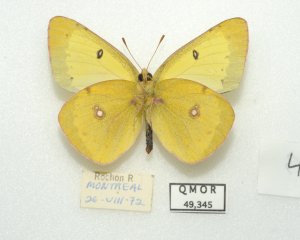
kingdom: Animalia
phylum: Arthropoda
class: Insecta
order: Lepidoptera
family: Pieridae
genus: Colias
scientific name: Colias philodice
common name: Clouded Sulphur
